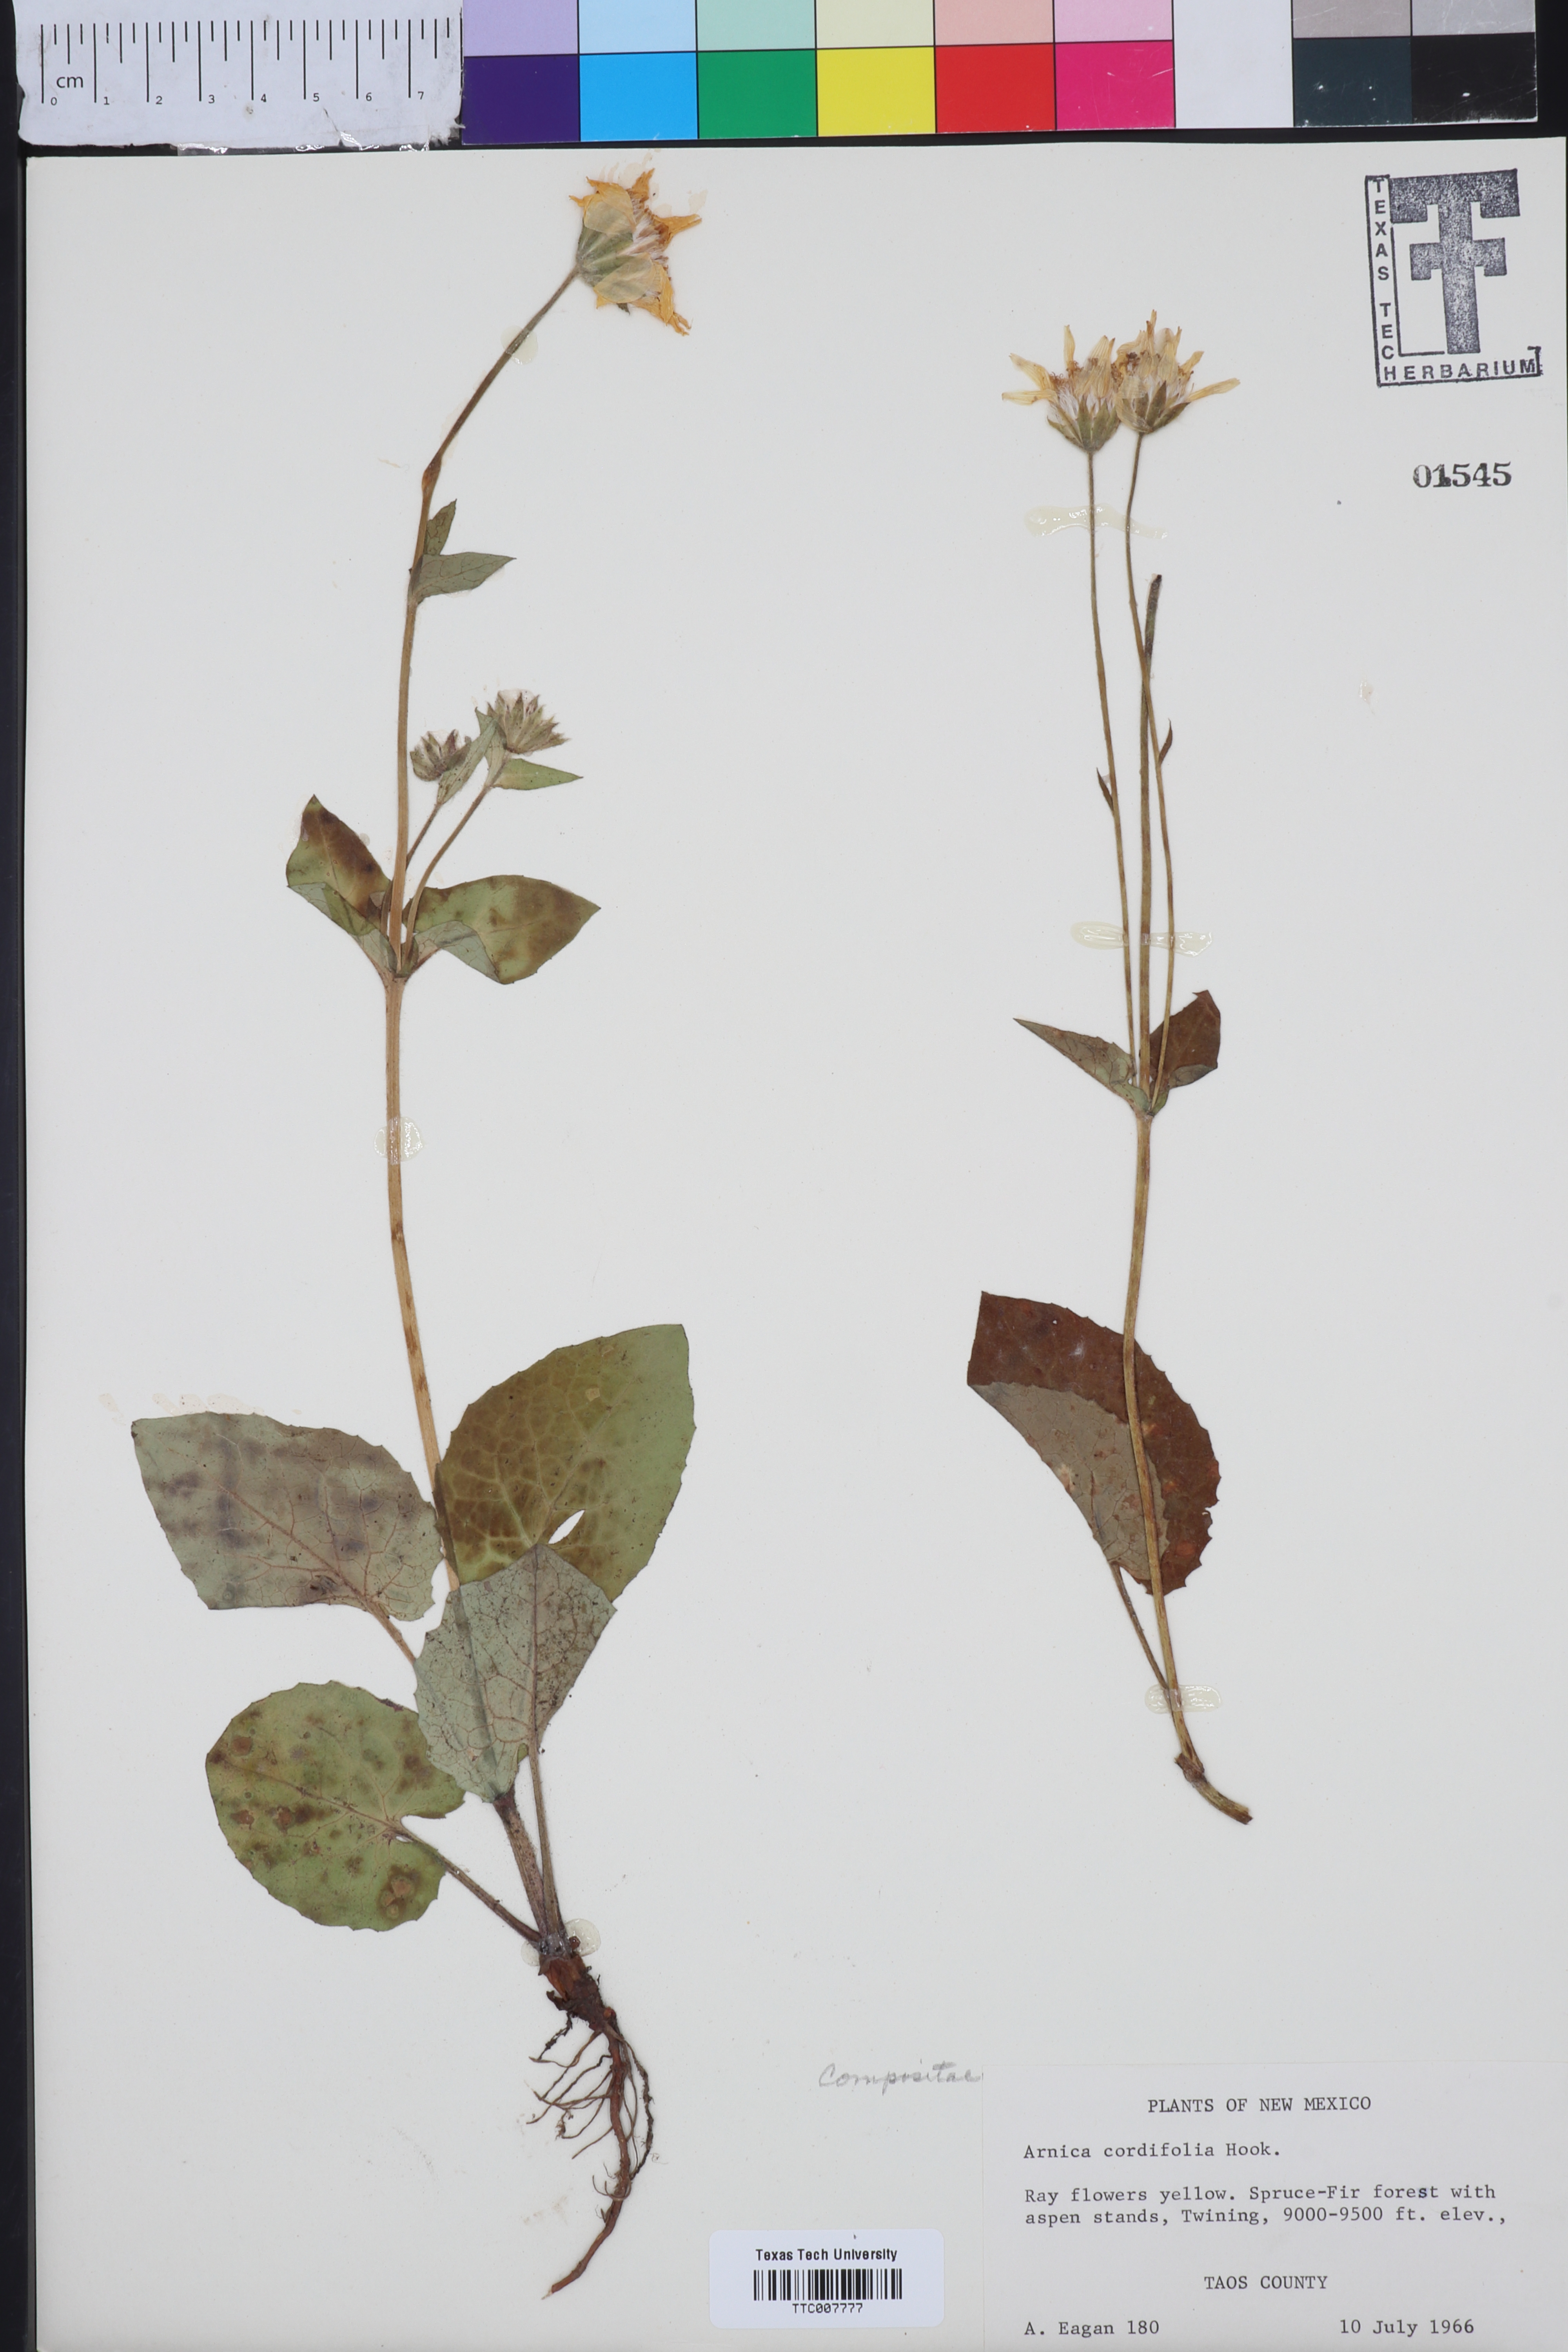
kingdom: Plantae
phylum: Tracheophyta
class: Magnoliopsida
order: Asterales
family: Asteraceae
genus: Arnica
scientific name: Arnica cordifolia
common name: Heart-leaf arnica
